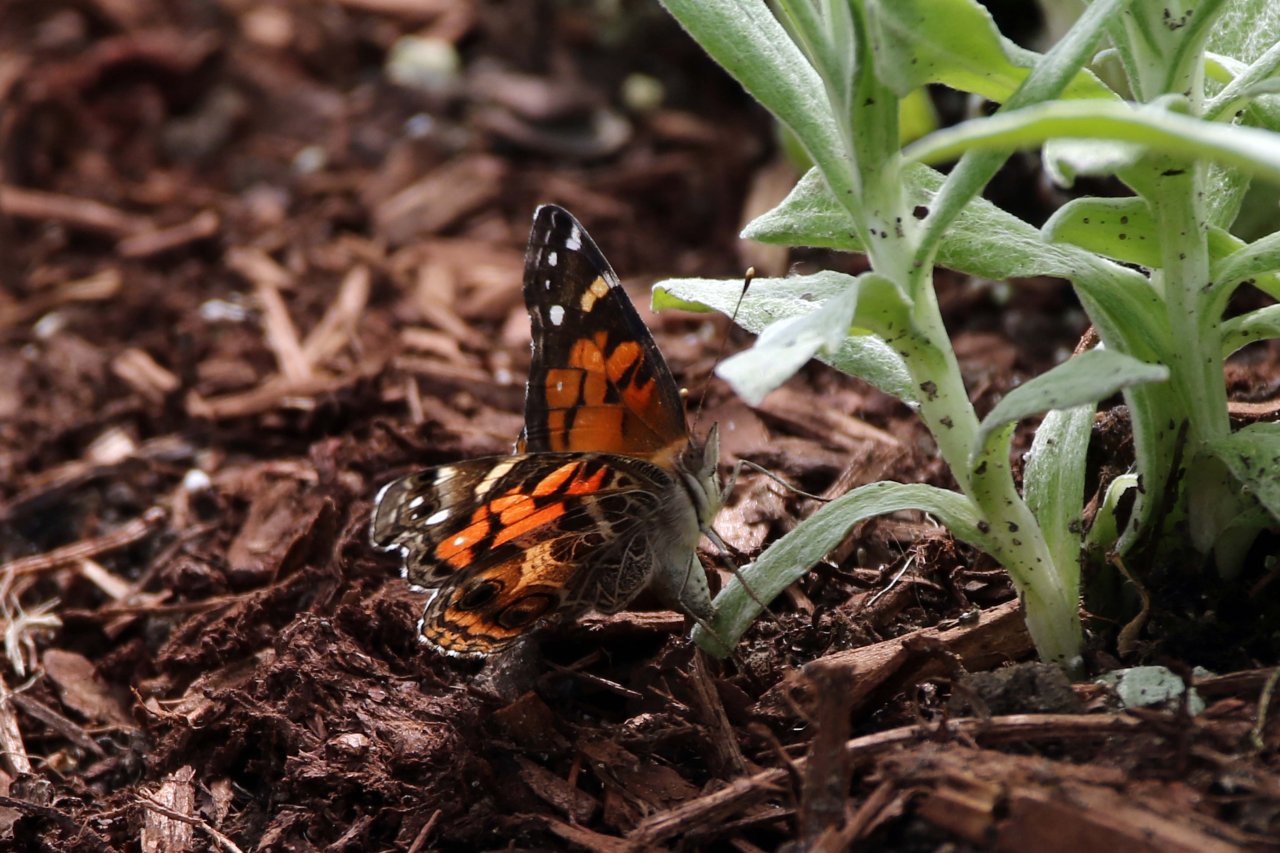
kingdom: Animalia
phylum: Arthropoda
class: Insecta
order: Lepidoptera
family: Nymphalidae
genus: Vanessa
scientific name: Vanessa virginiensis
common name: American Lady
